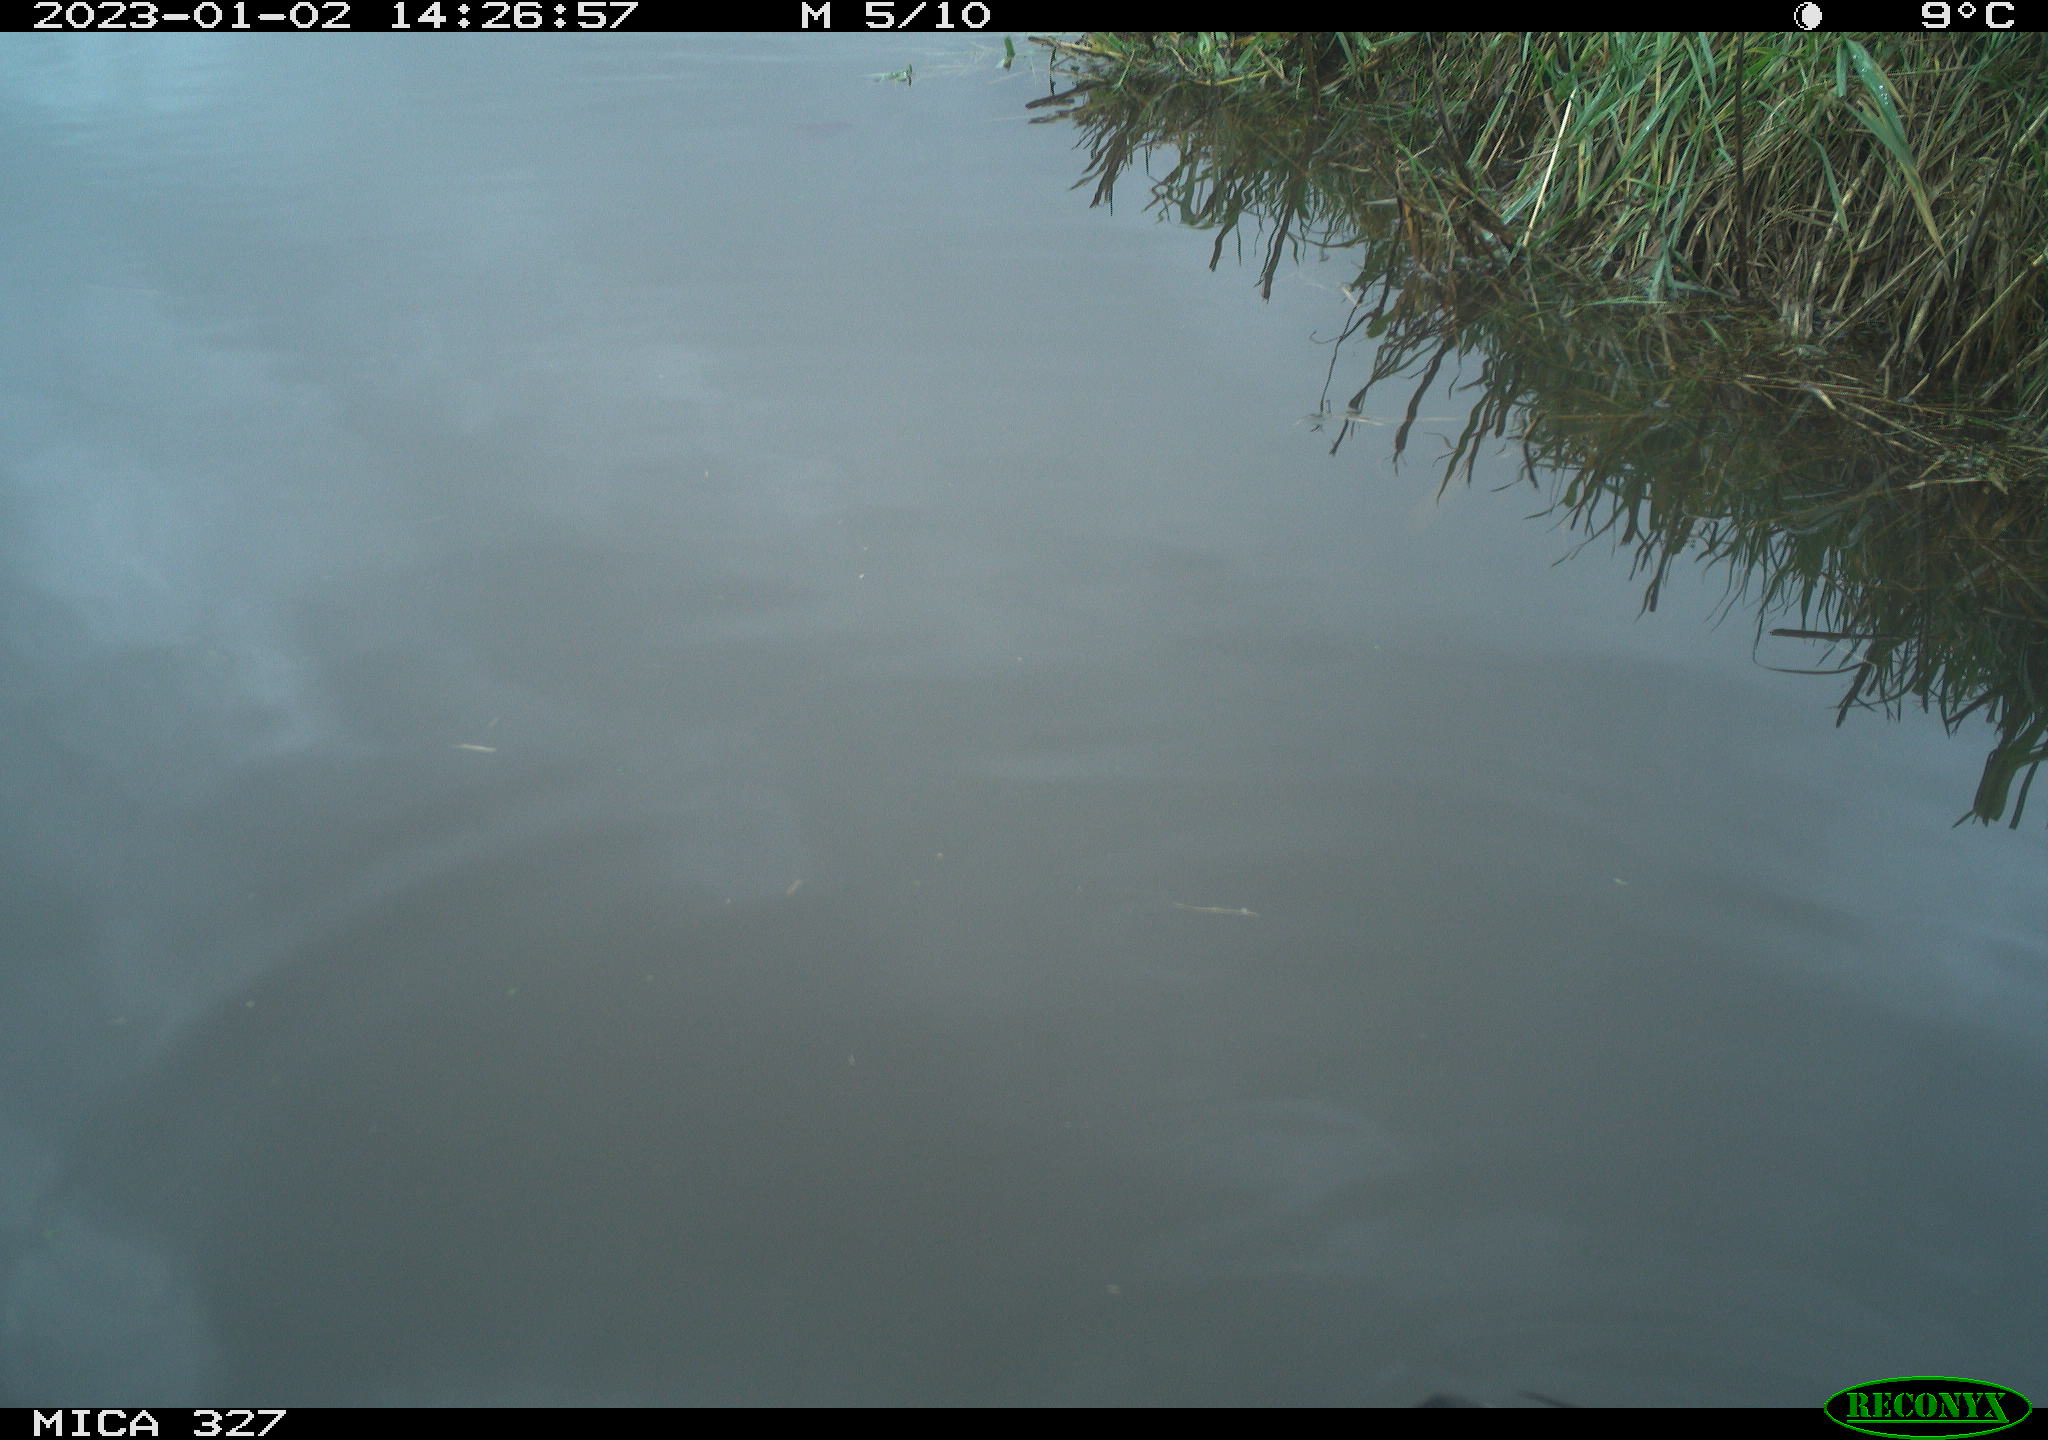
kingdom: Animalia
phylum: Chordata
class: Aves
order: Gruiformes
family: Rallidae
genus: Gallinula
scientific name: Gallinula chloropus
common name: Common moorhen
